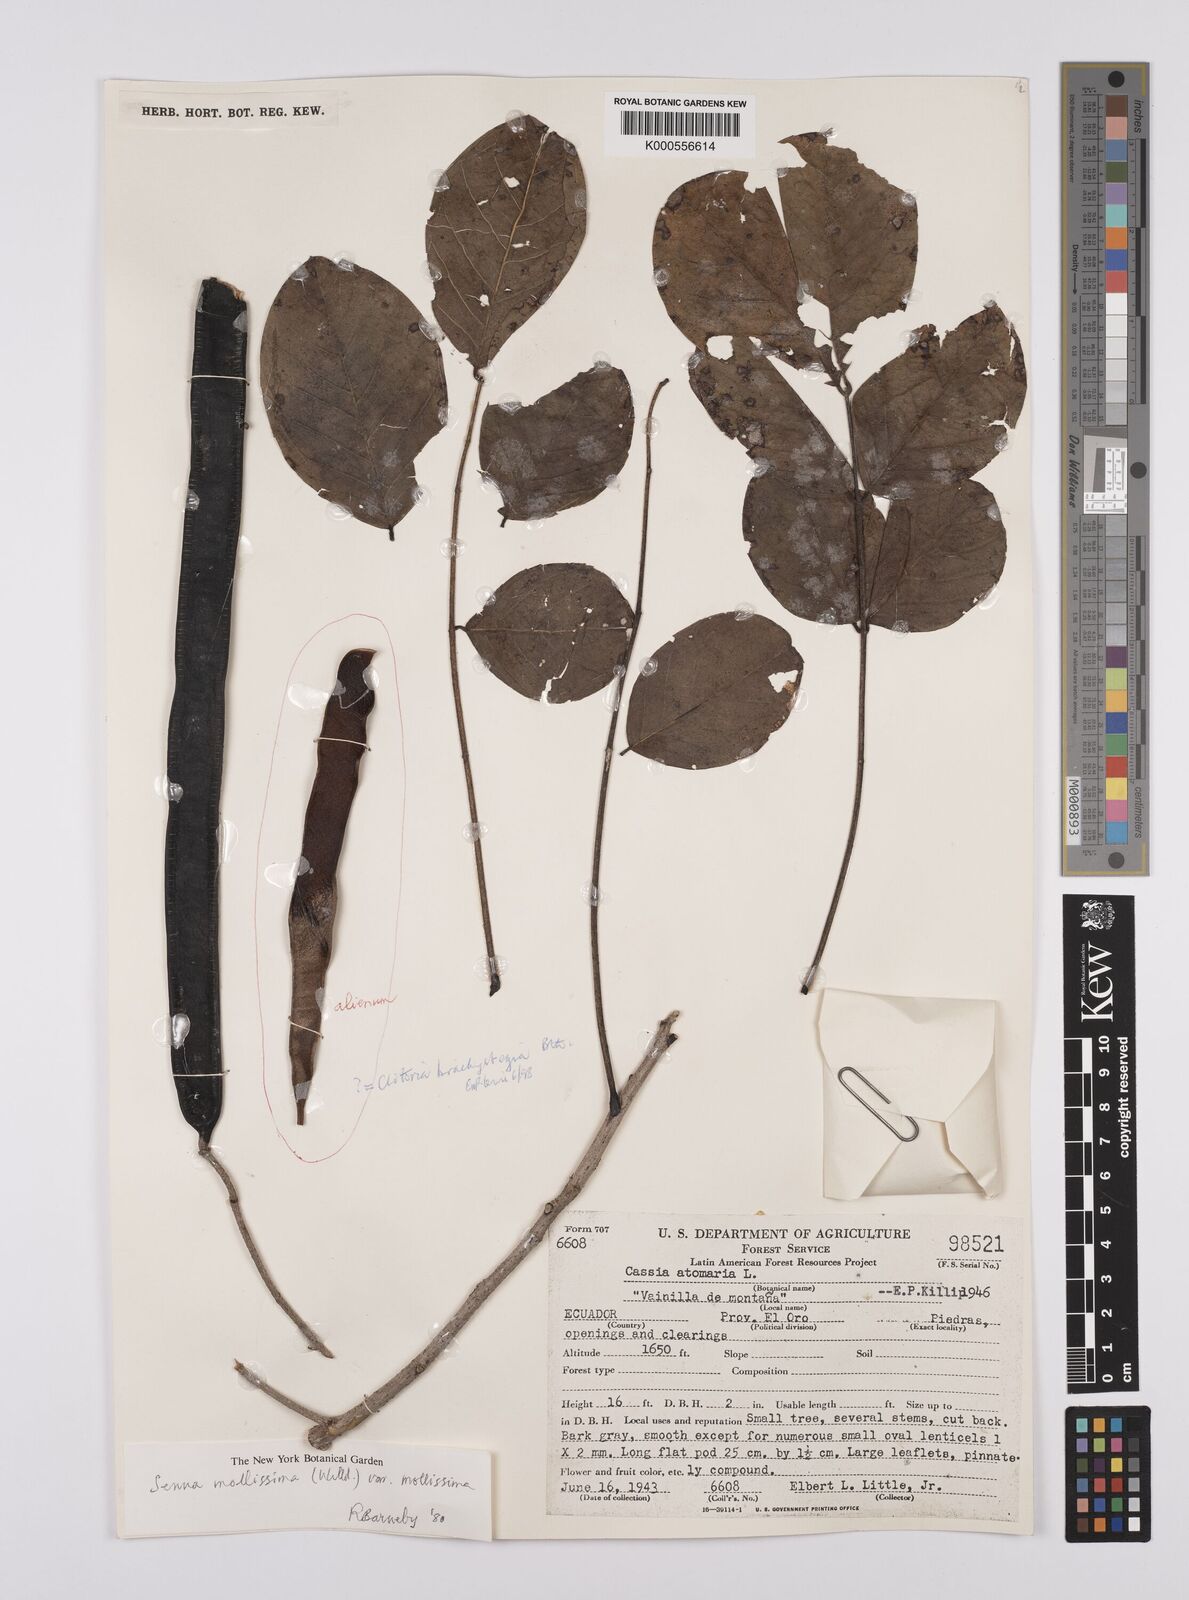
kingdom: Plantae
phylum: Tracheophyta
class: Magnoliopsida
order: Fabales
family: Fabaceae
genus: Senna
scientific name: Senna mollissima
